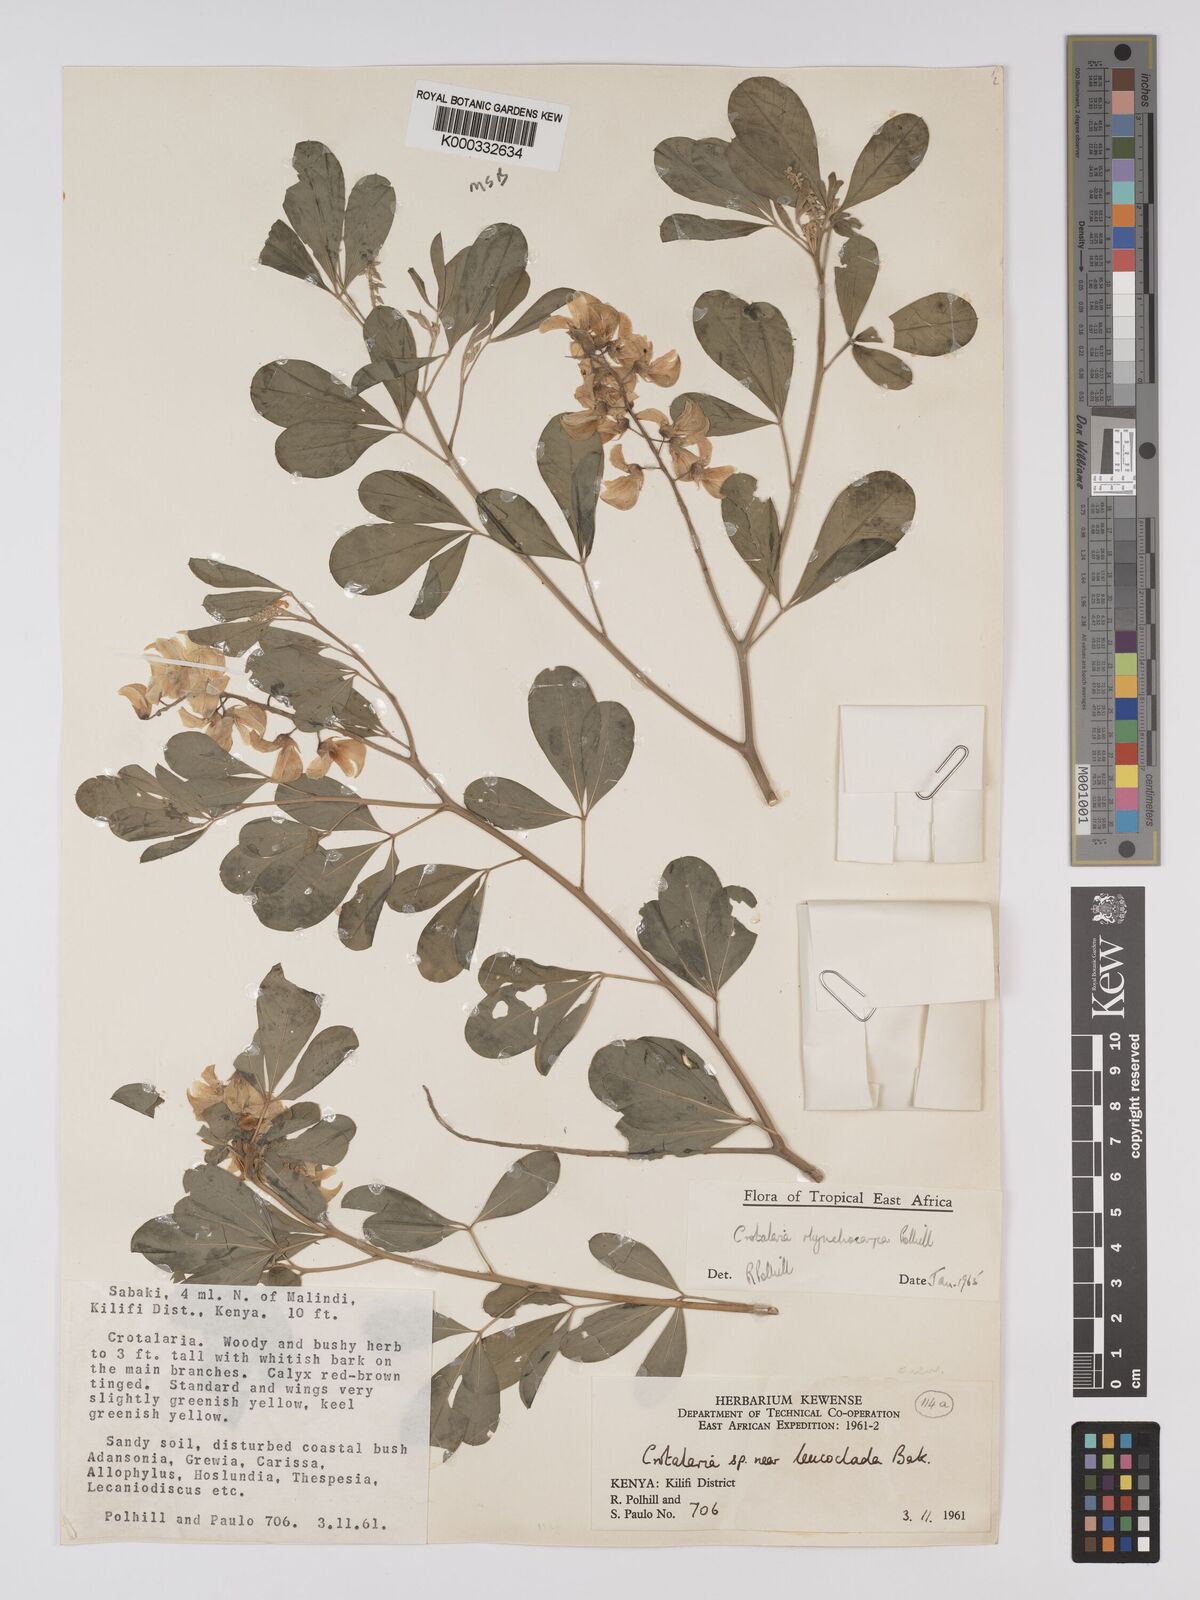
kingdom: Plantae
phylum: Tracheophyta
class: Magnoliopsida
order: Fabales
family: Fabaceae
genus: Crotalaria
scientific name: Crotalaria rhynchocarpa
